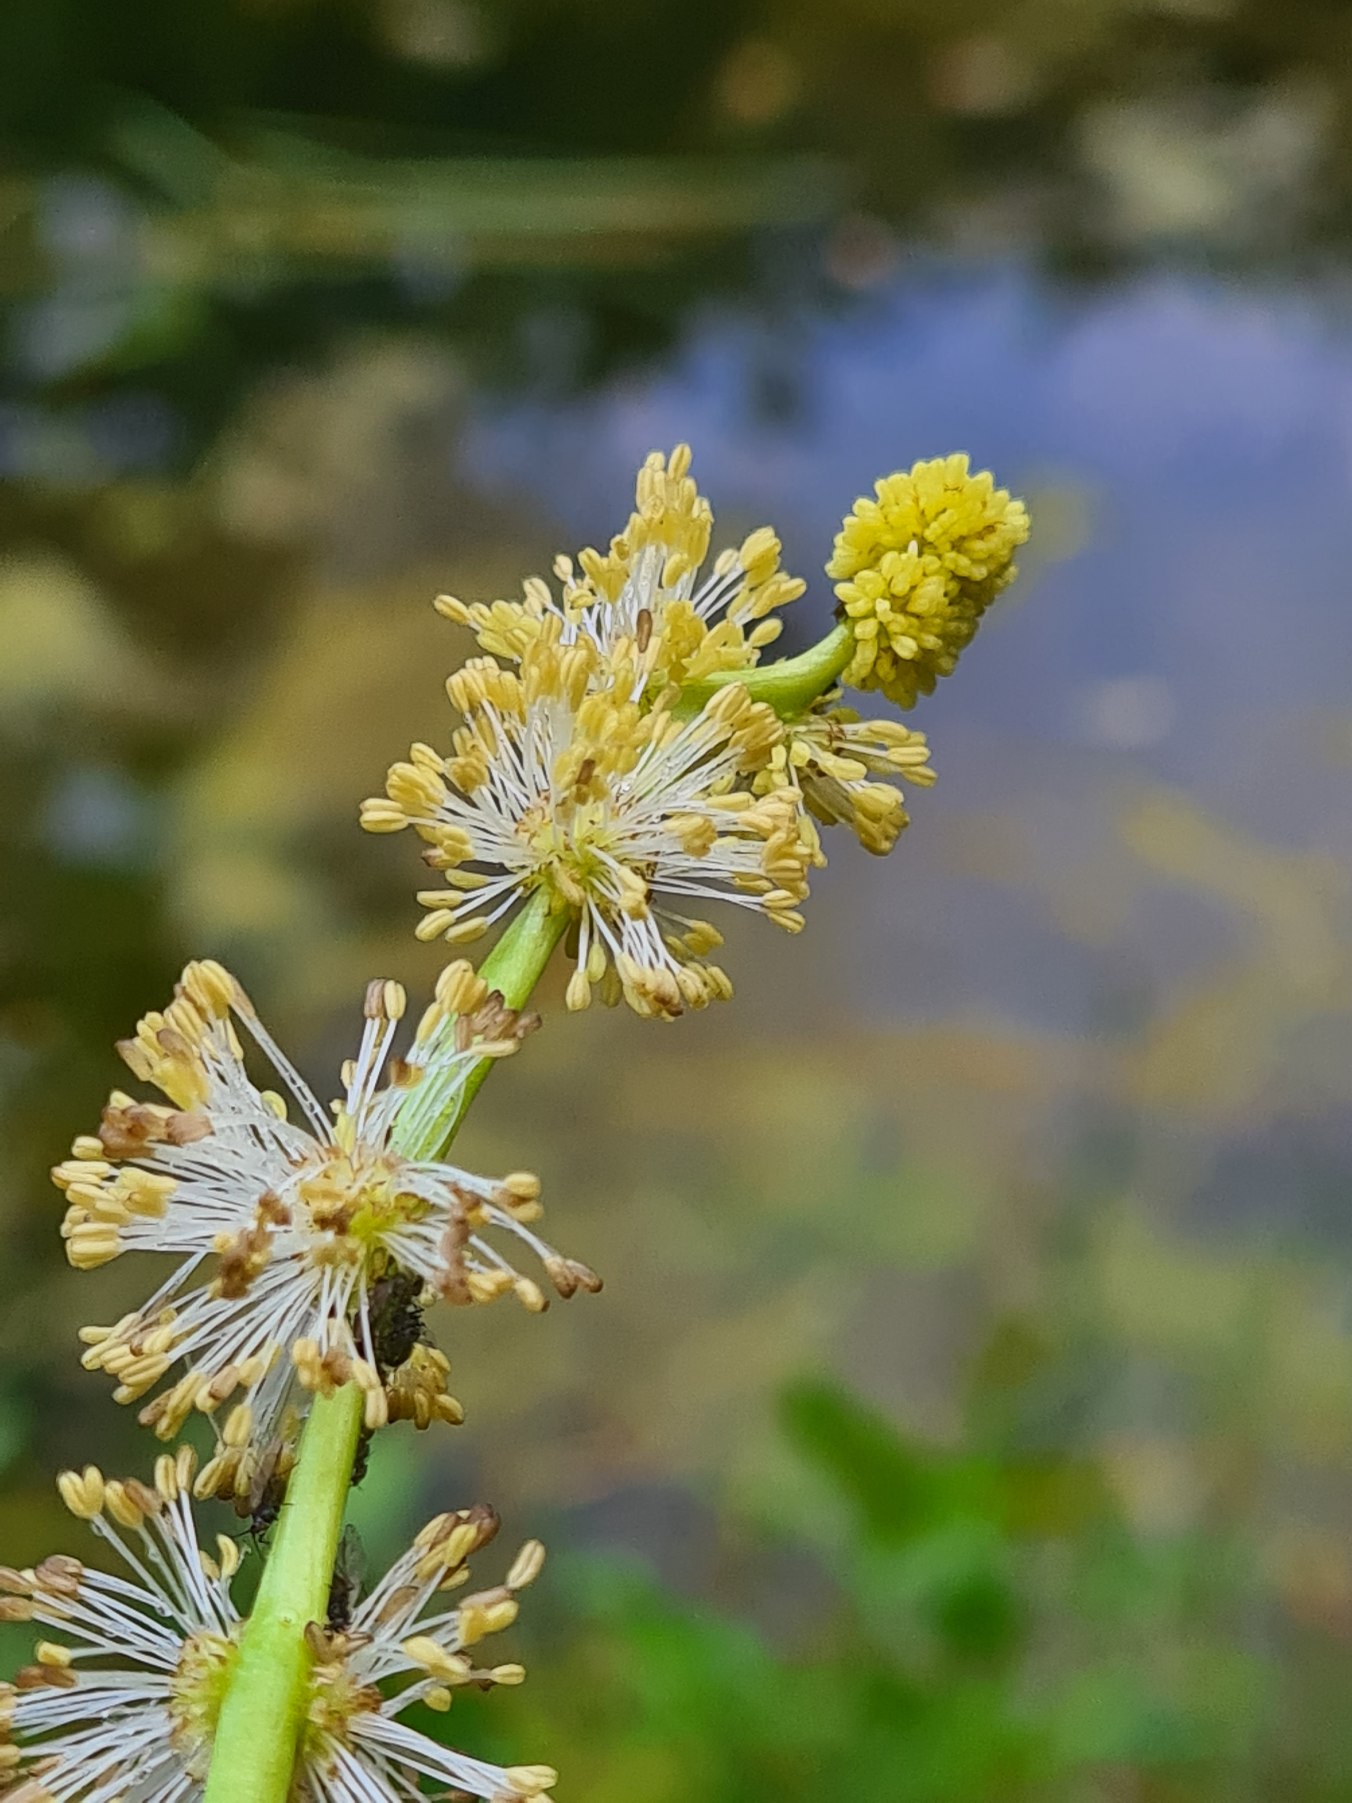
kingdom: Plantae
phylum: Tracheophyta
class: Liliopsida
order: Poales
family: Typhaceae
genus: Sparganium
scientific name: Sparganium emersum
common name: Enkelt pindsvineknop
